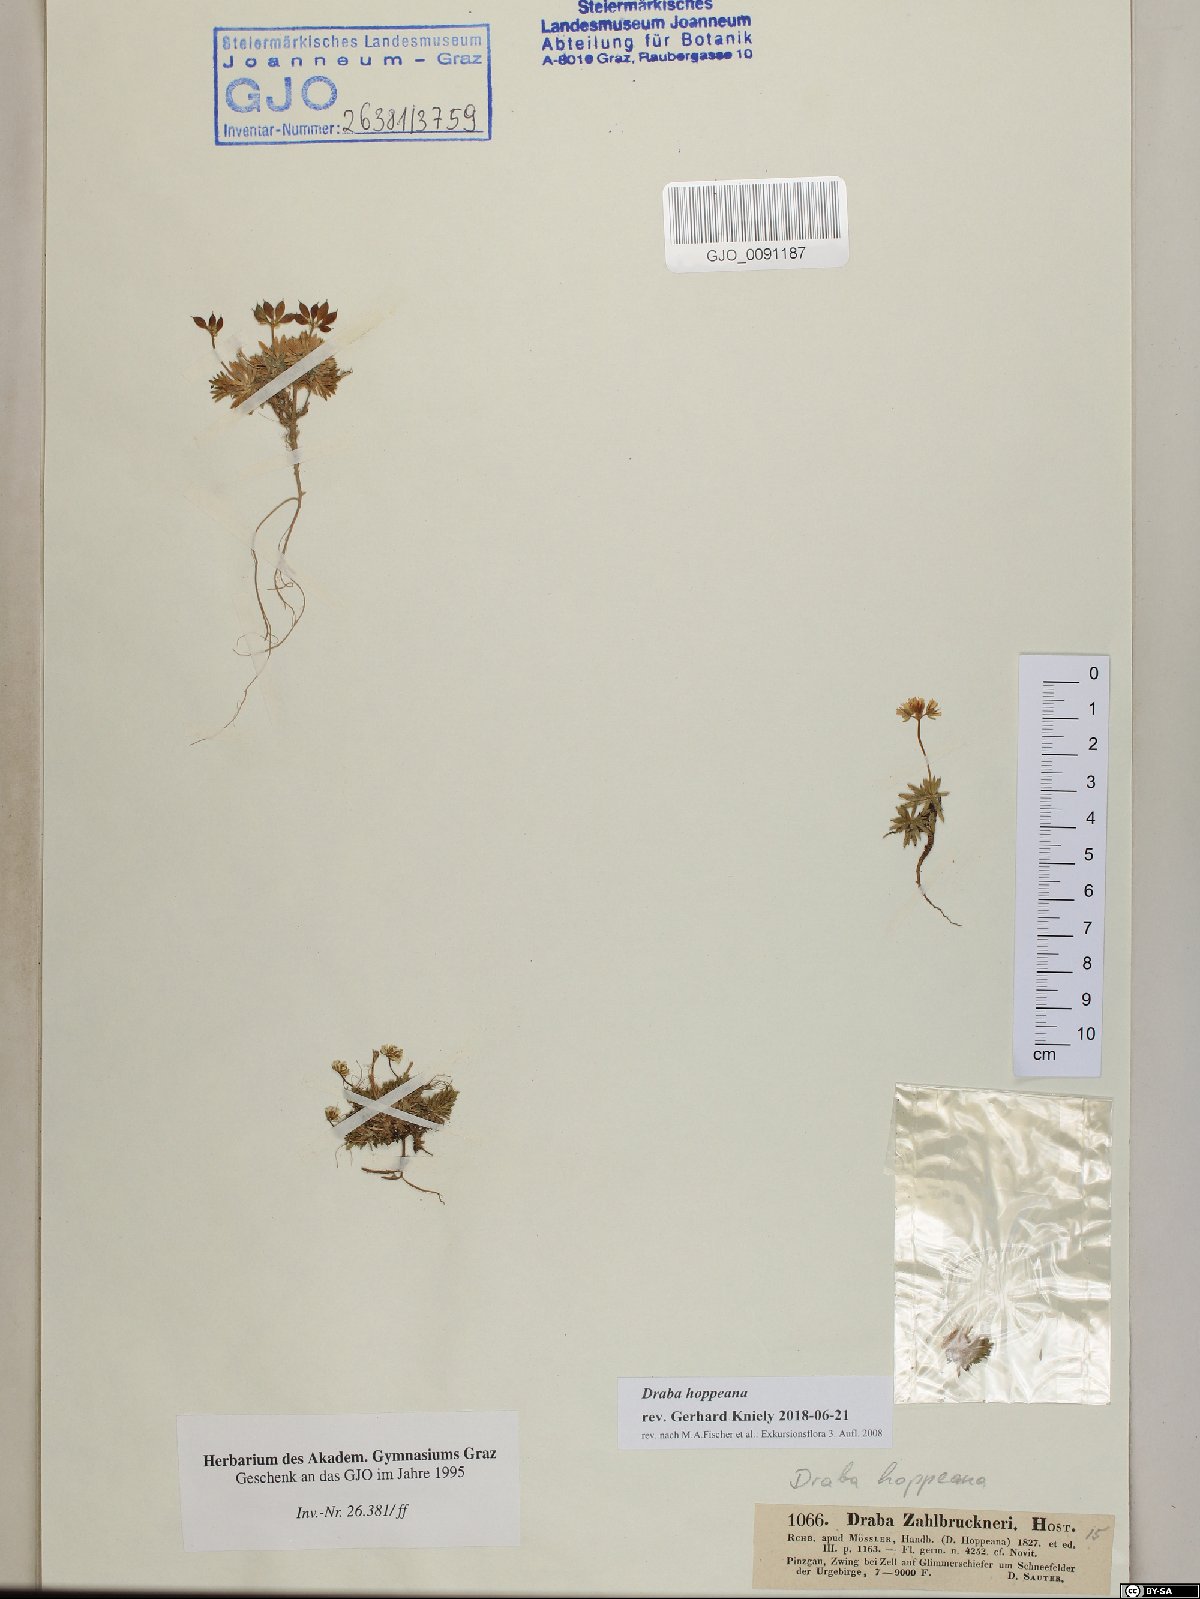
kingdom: Plantae
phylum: Tracheophyta
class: Magnoliopsida
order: Brassicales
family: Brassicaceae
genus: Draba
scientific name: Draba hoppeana
